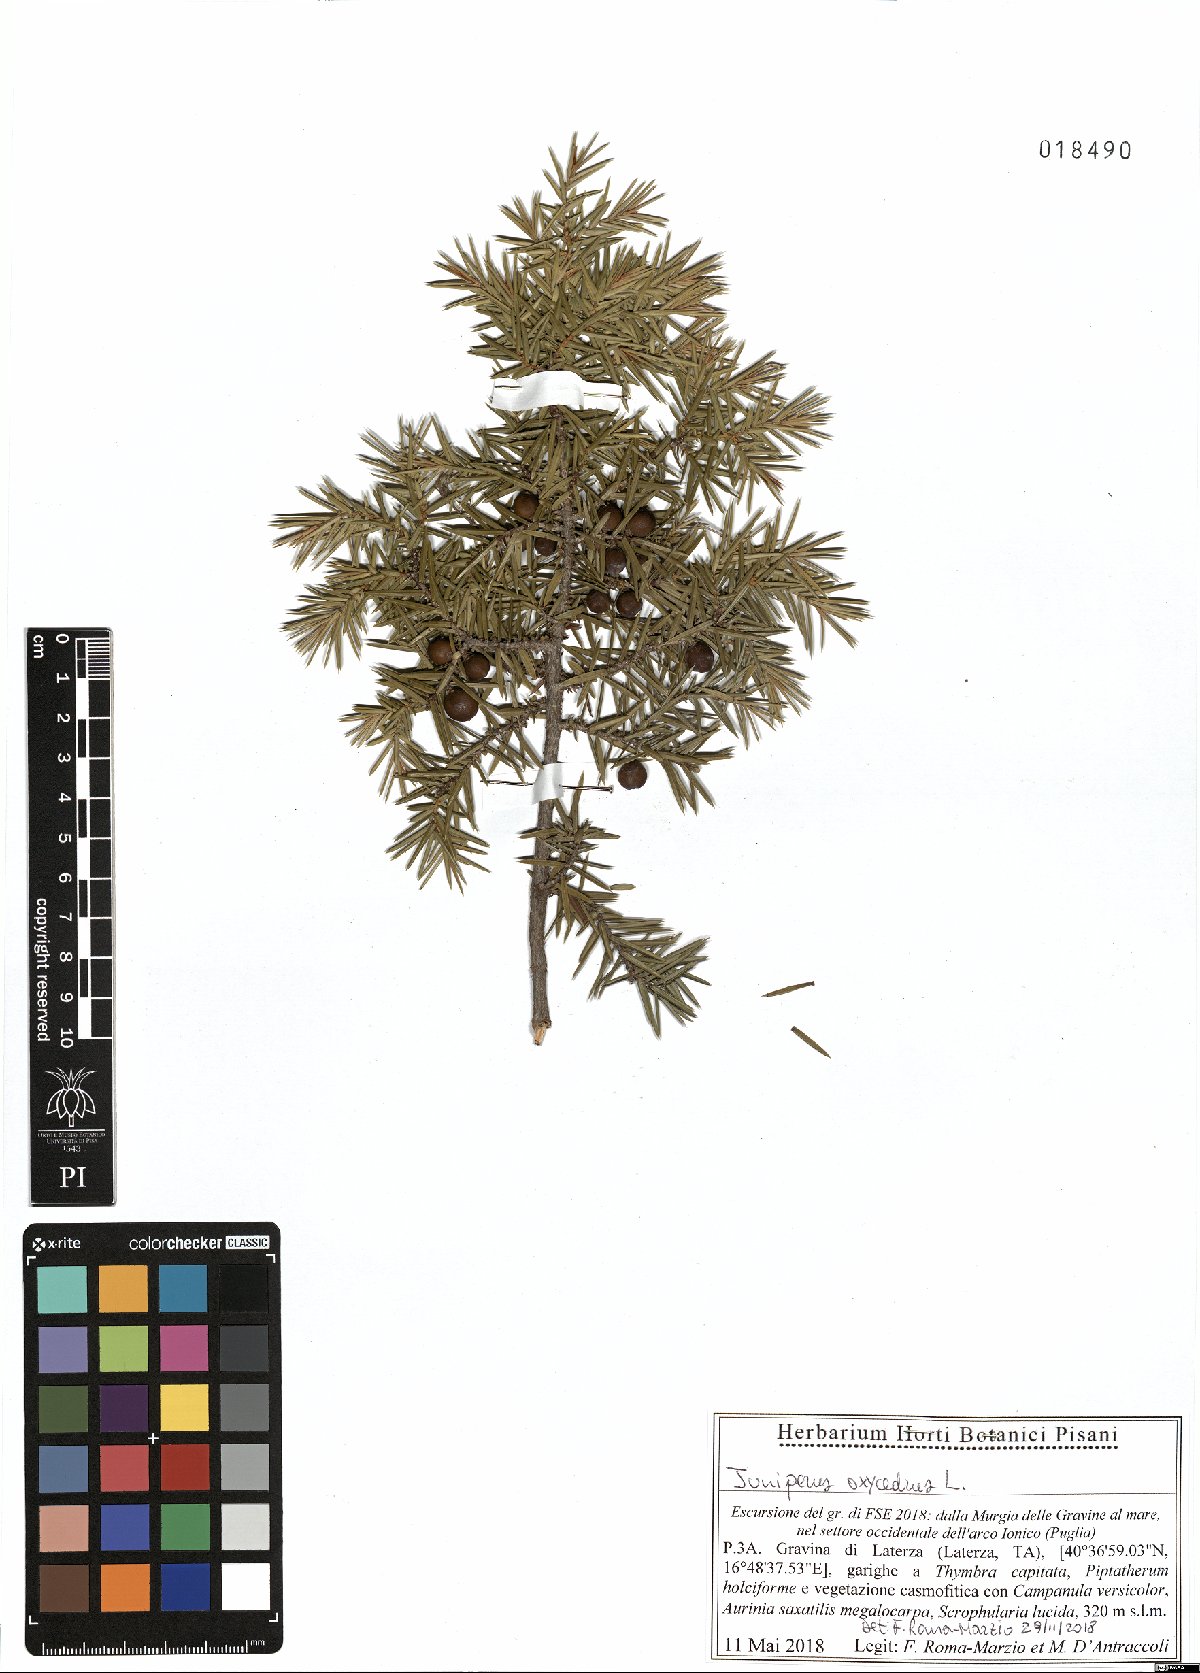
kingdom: Plantae
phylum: Tracheophyta
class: Pinopsida
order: Pinales
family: Cupressaceae
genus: Juniperus
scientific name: Juniperus oxycedrus
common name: Prickly juniper
